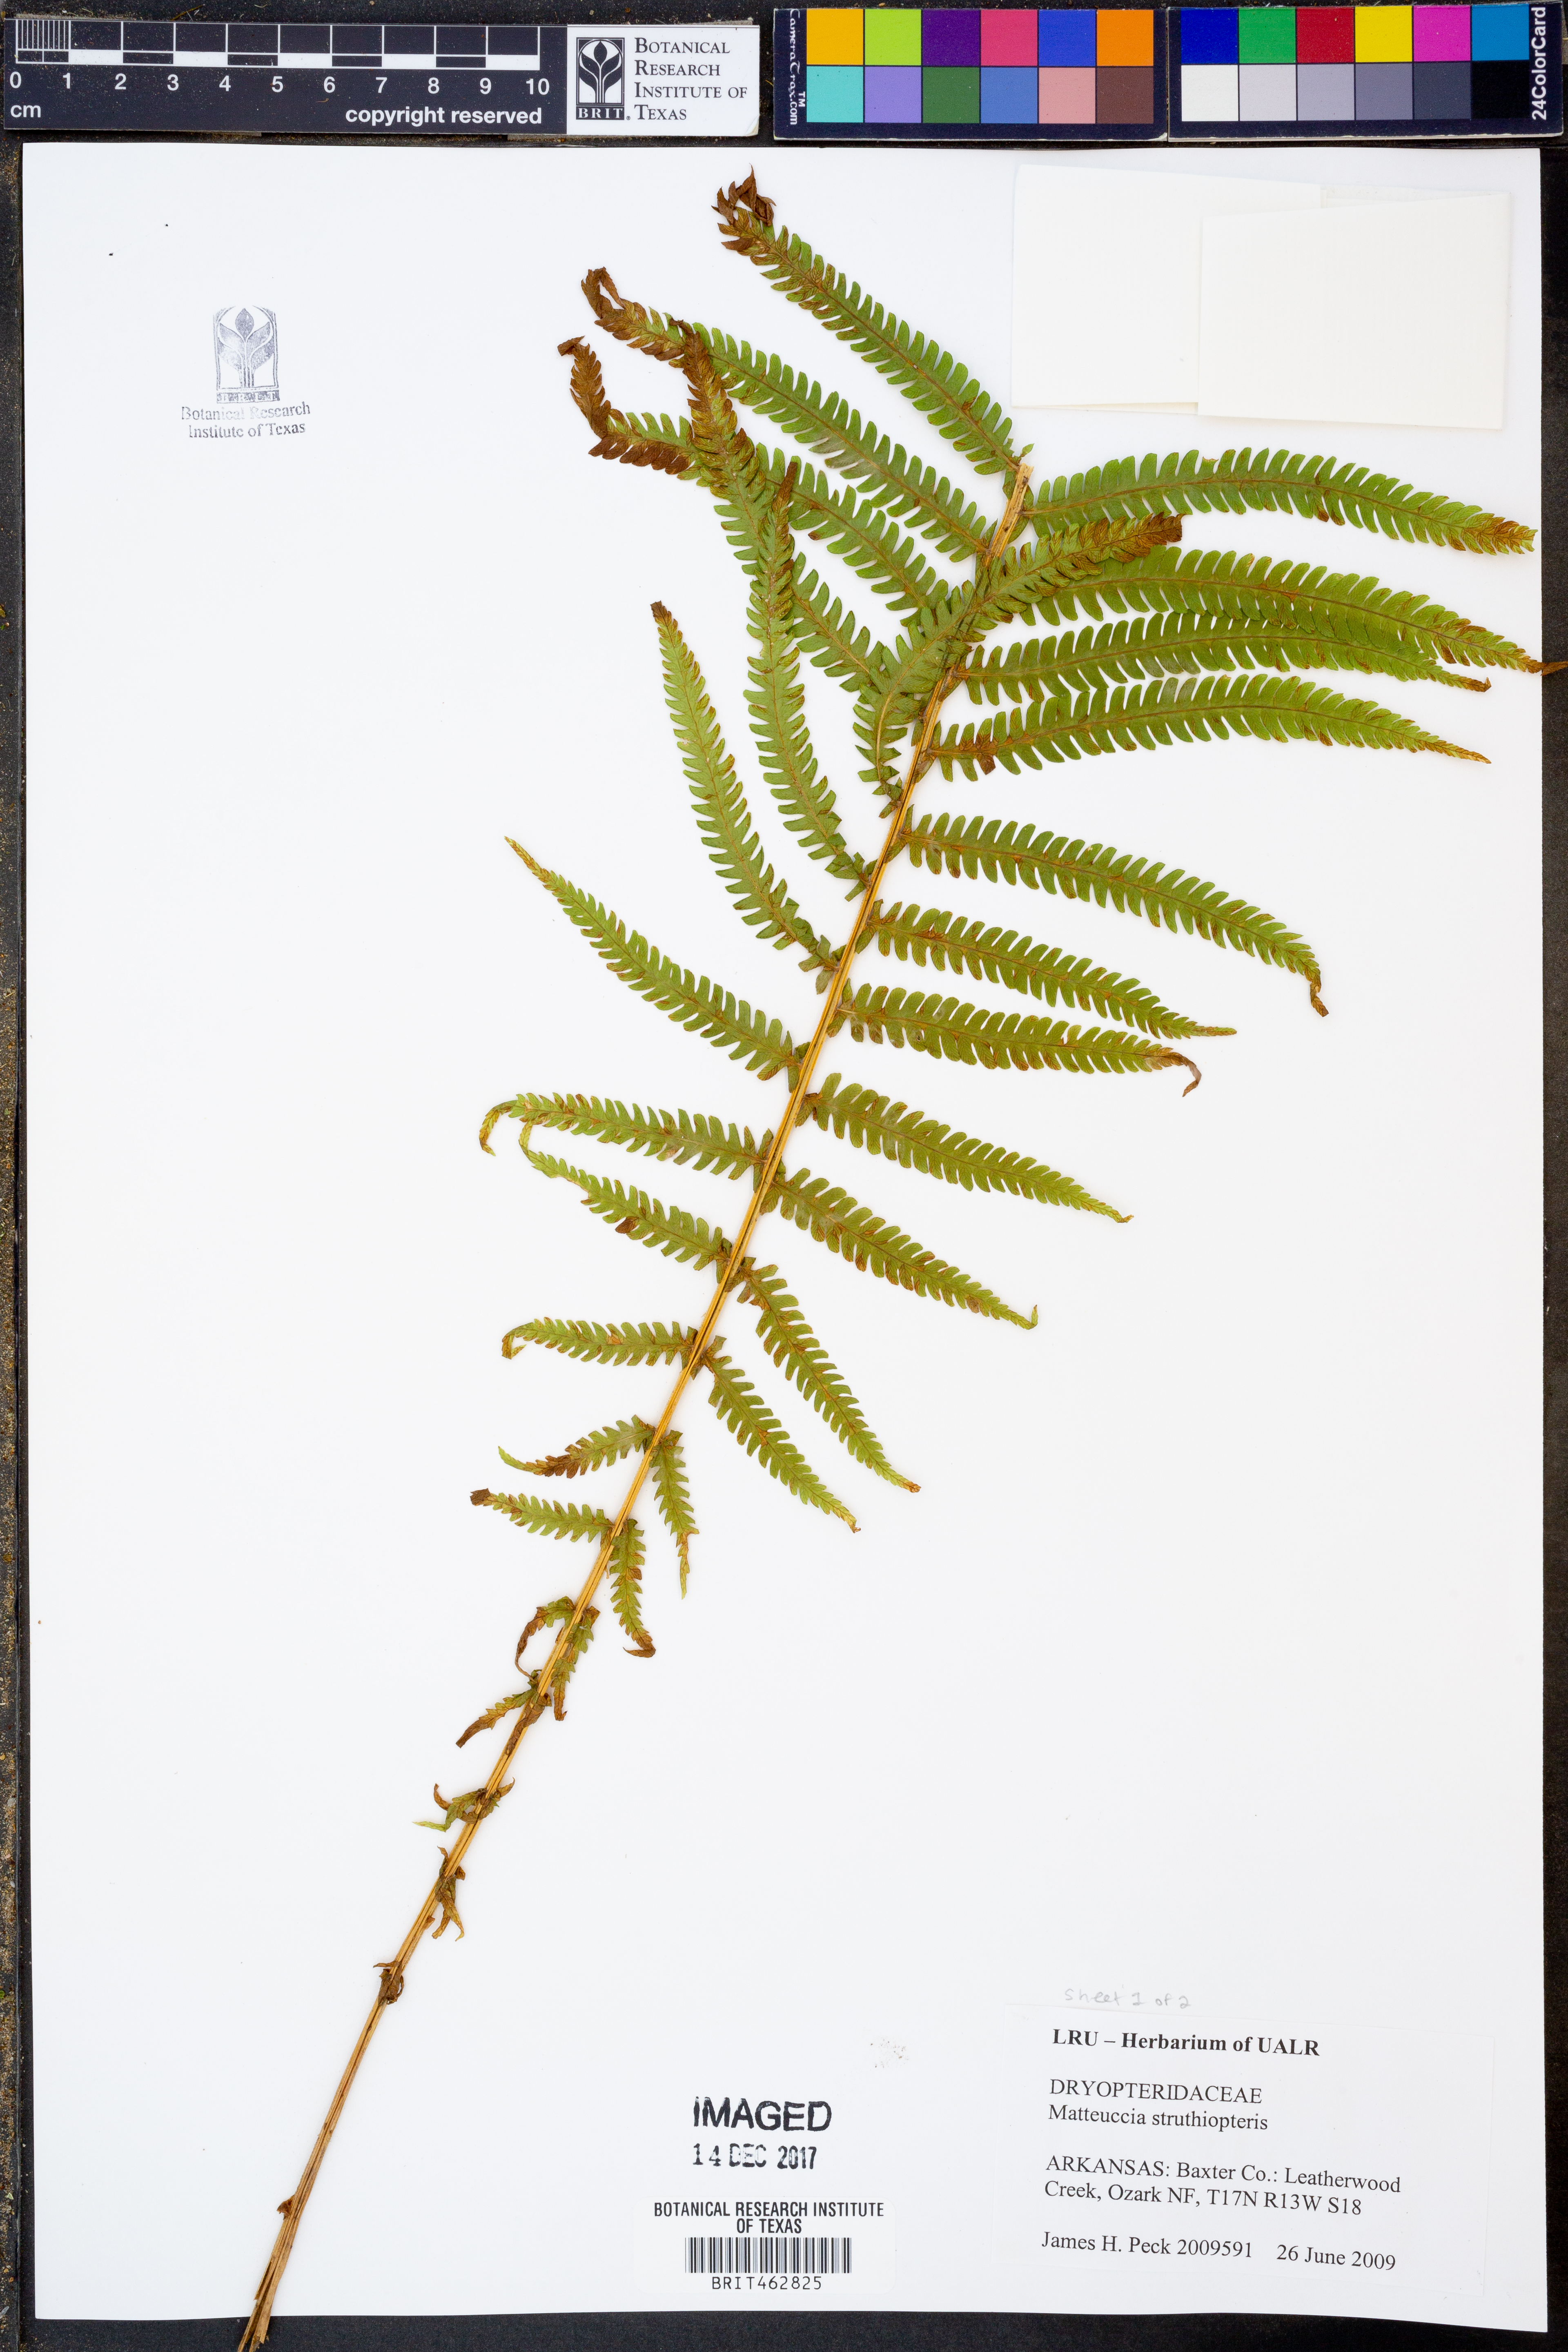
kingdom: Plantae
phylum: Tracheophyta
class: Polypodiopsida
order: Polypodiales
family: Onocleaceae
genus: Matteuccia
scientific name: Matteuccia struthiopteris
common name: Ostrich fern
